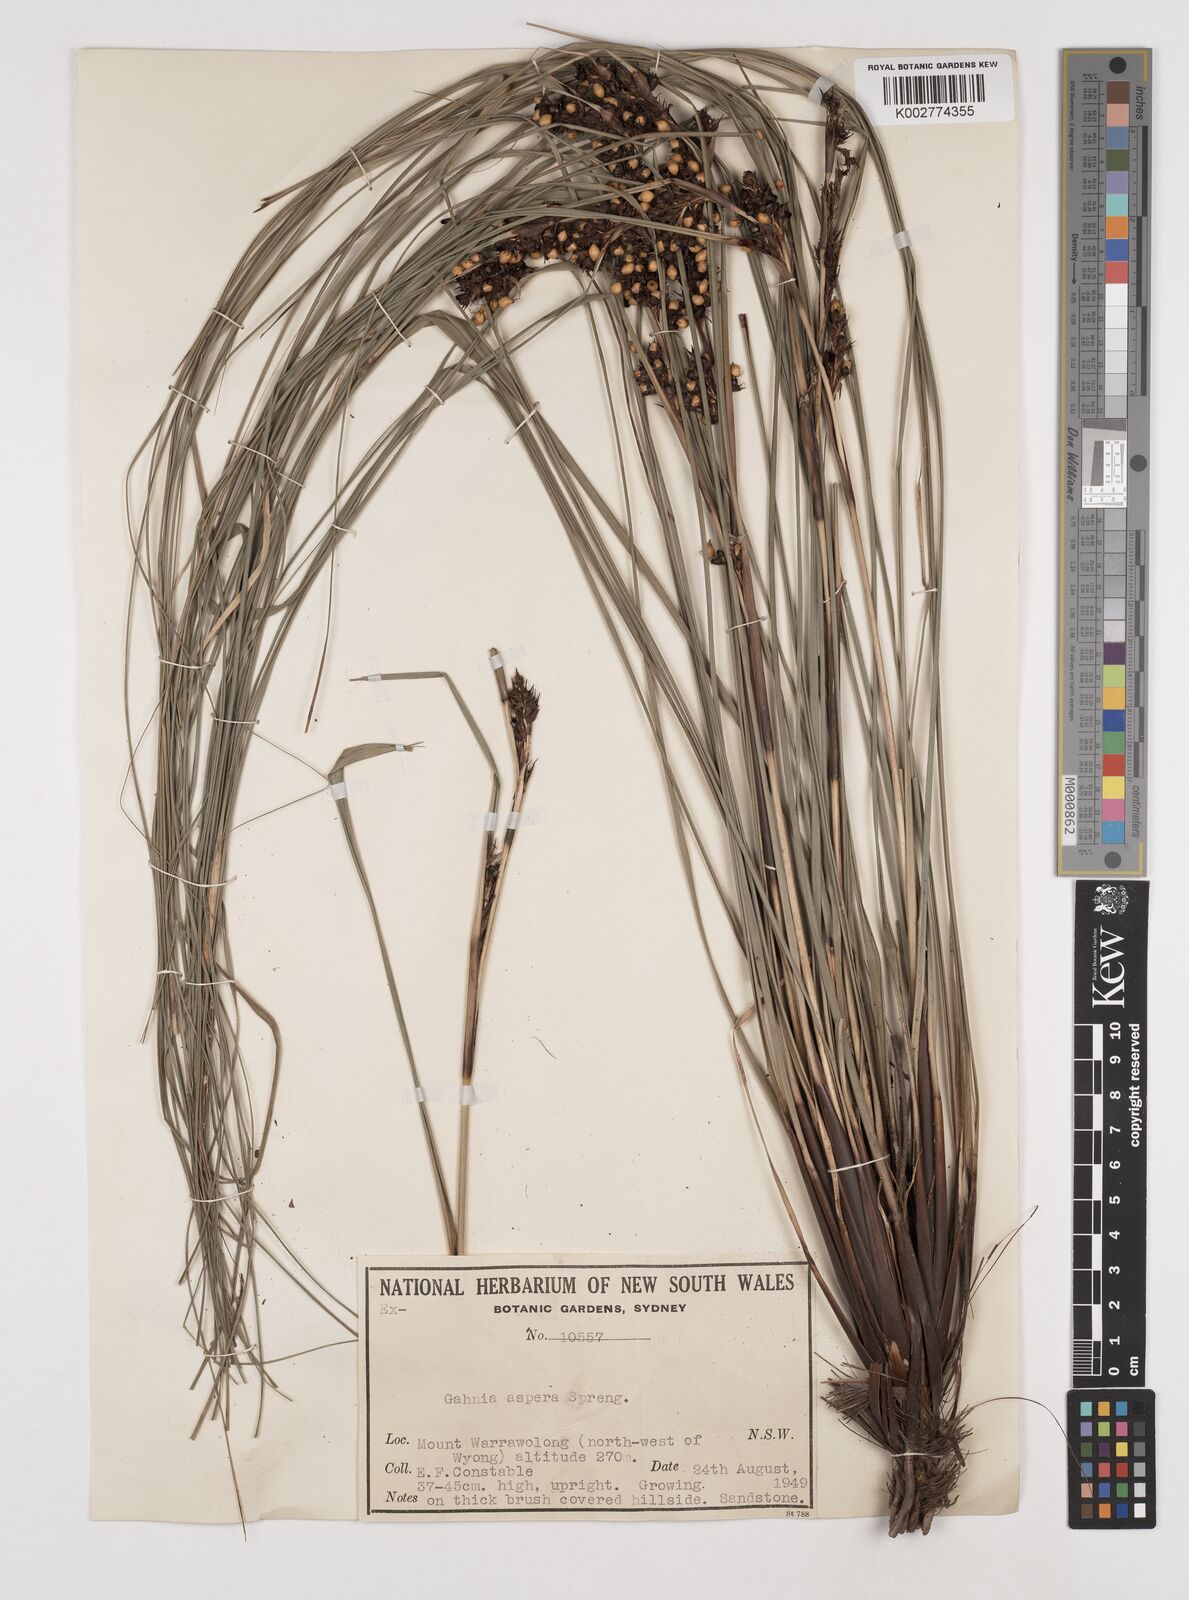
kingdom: Plantae
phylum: Tracheophyta
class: Liliopsida
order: Poales
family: Cyperaceae
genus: Gahnia
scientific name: Gahnia aspera
